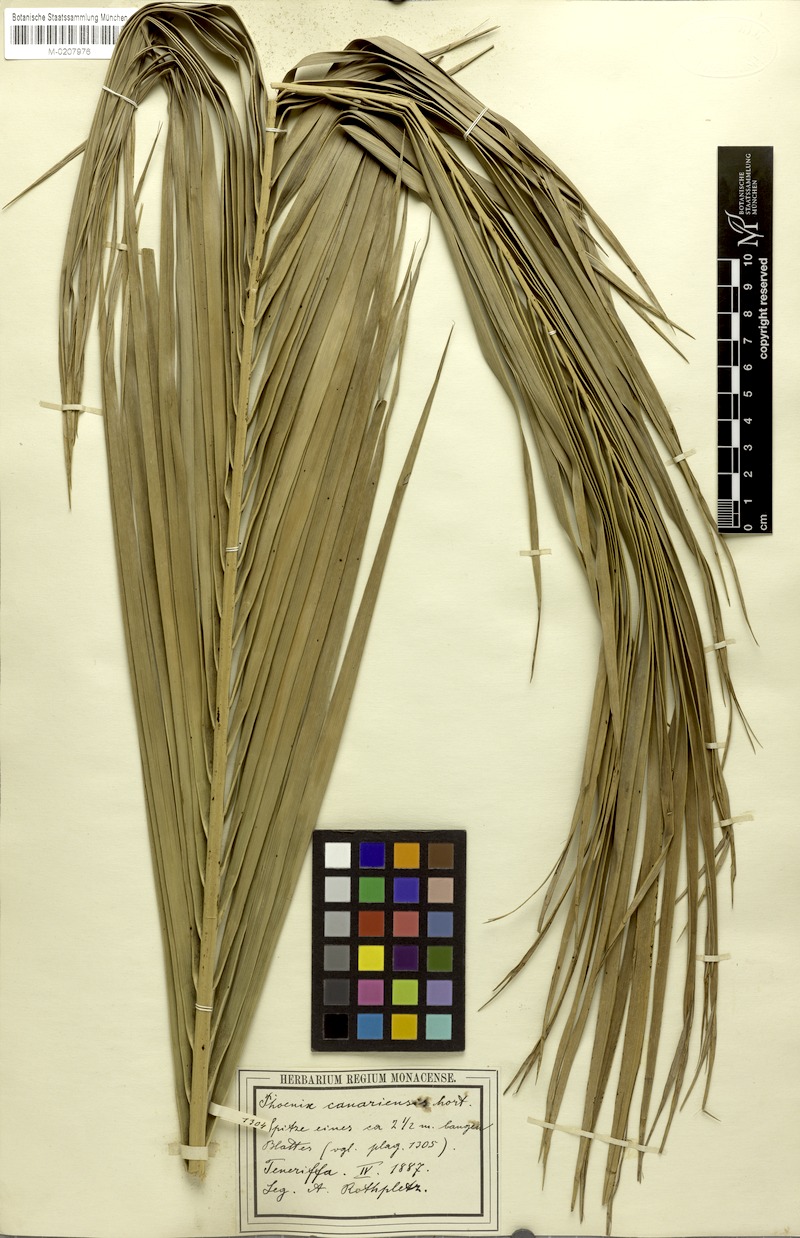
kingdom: Plantae
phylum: Tracheophyta
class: Liliopsida
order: Arecales
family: Arecaceae
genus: Phoenix
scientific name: Phoenix canariensis
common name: Canary island date palm
